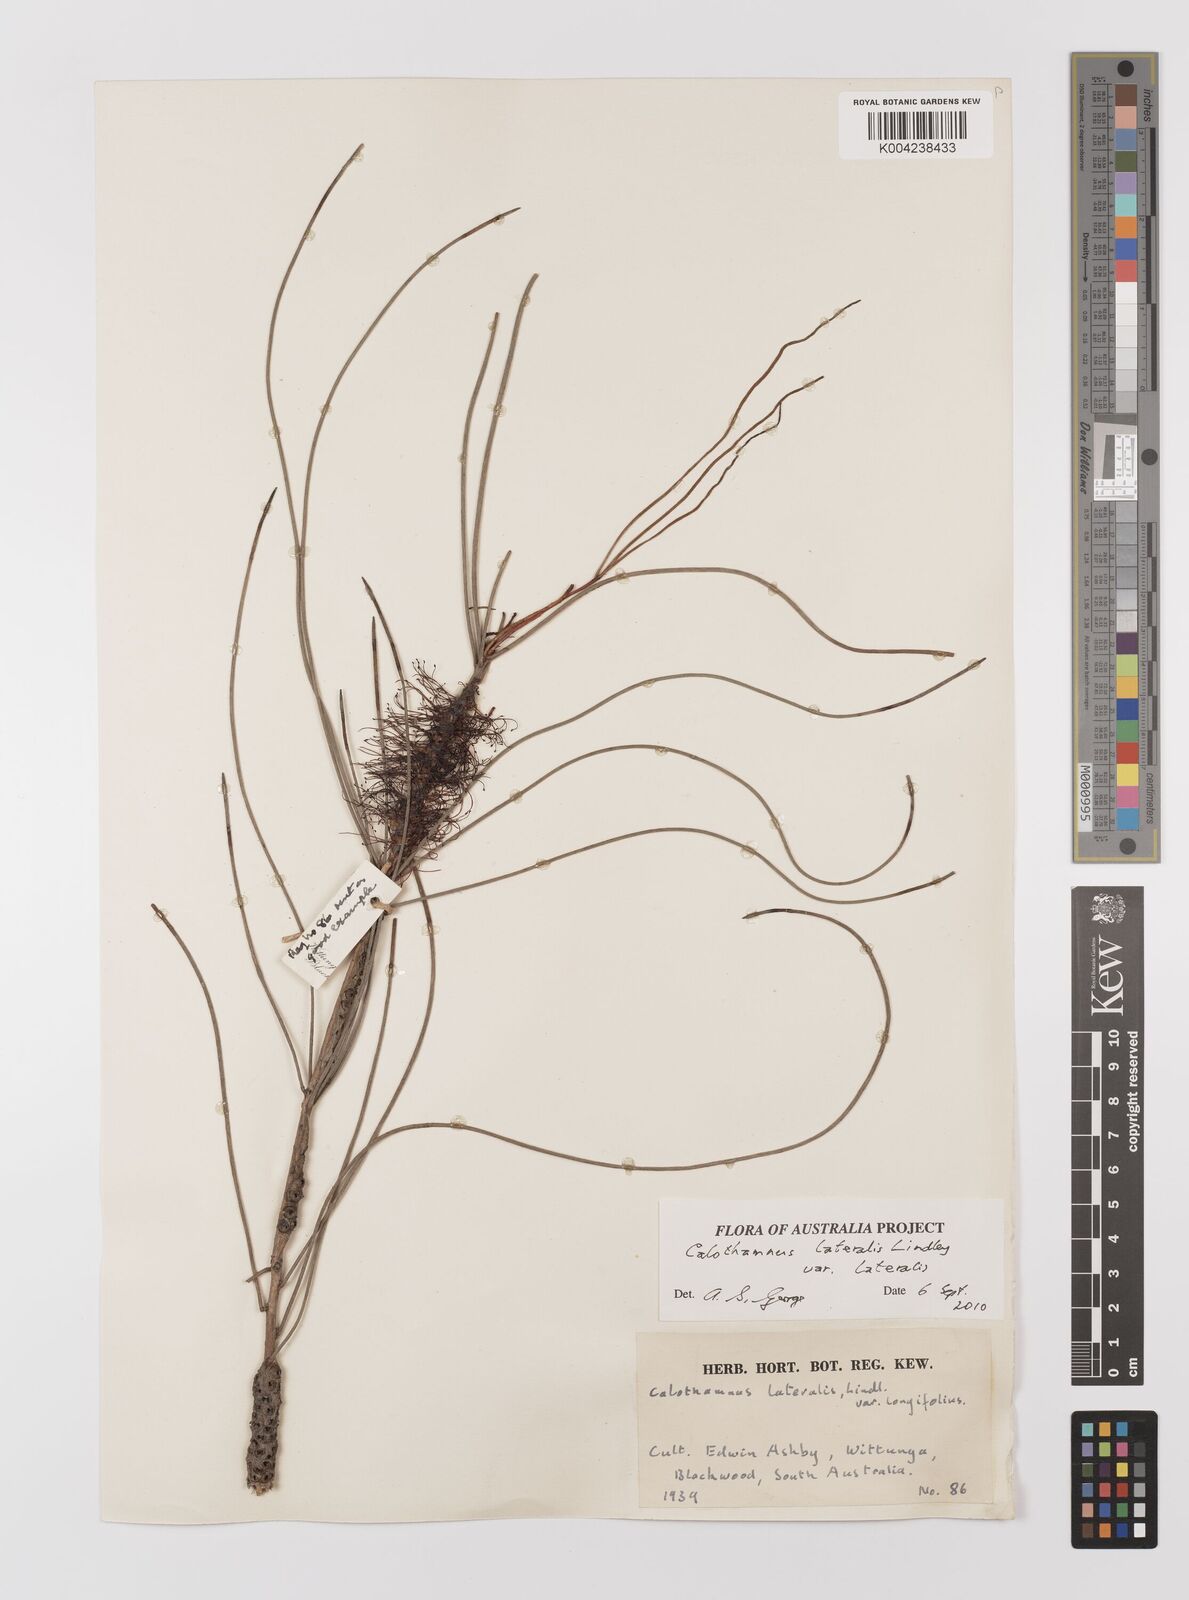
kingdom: Plantae
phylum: Tracheophyta
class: Magnoliopsida
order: Myrtales
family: Myrtaceae
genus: Melaleuca
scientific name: Melaleuca lateralis
